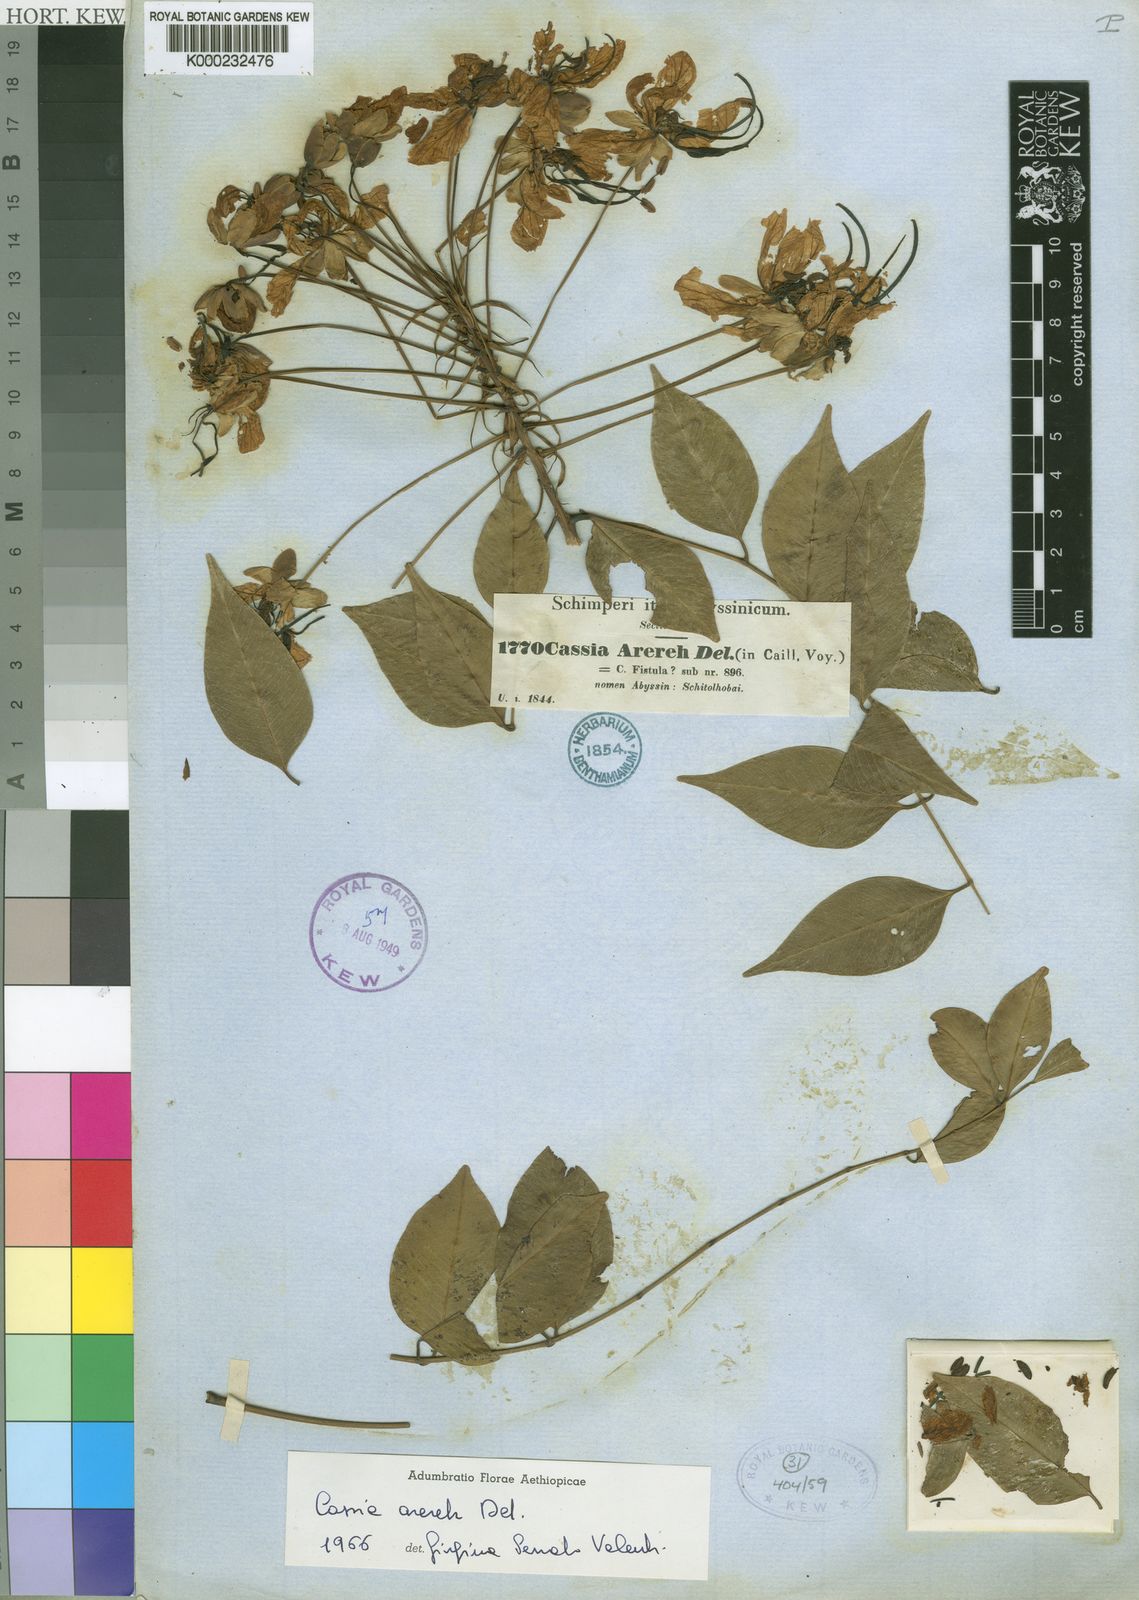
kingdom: Plantae
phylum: Tracheophyta
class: Magnoliopsida
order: Fabales
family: Fabaceae
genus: Cassia
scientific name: Cassia arereh
